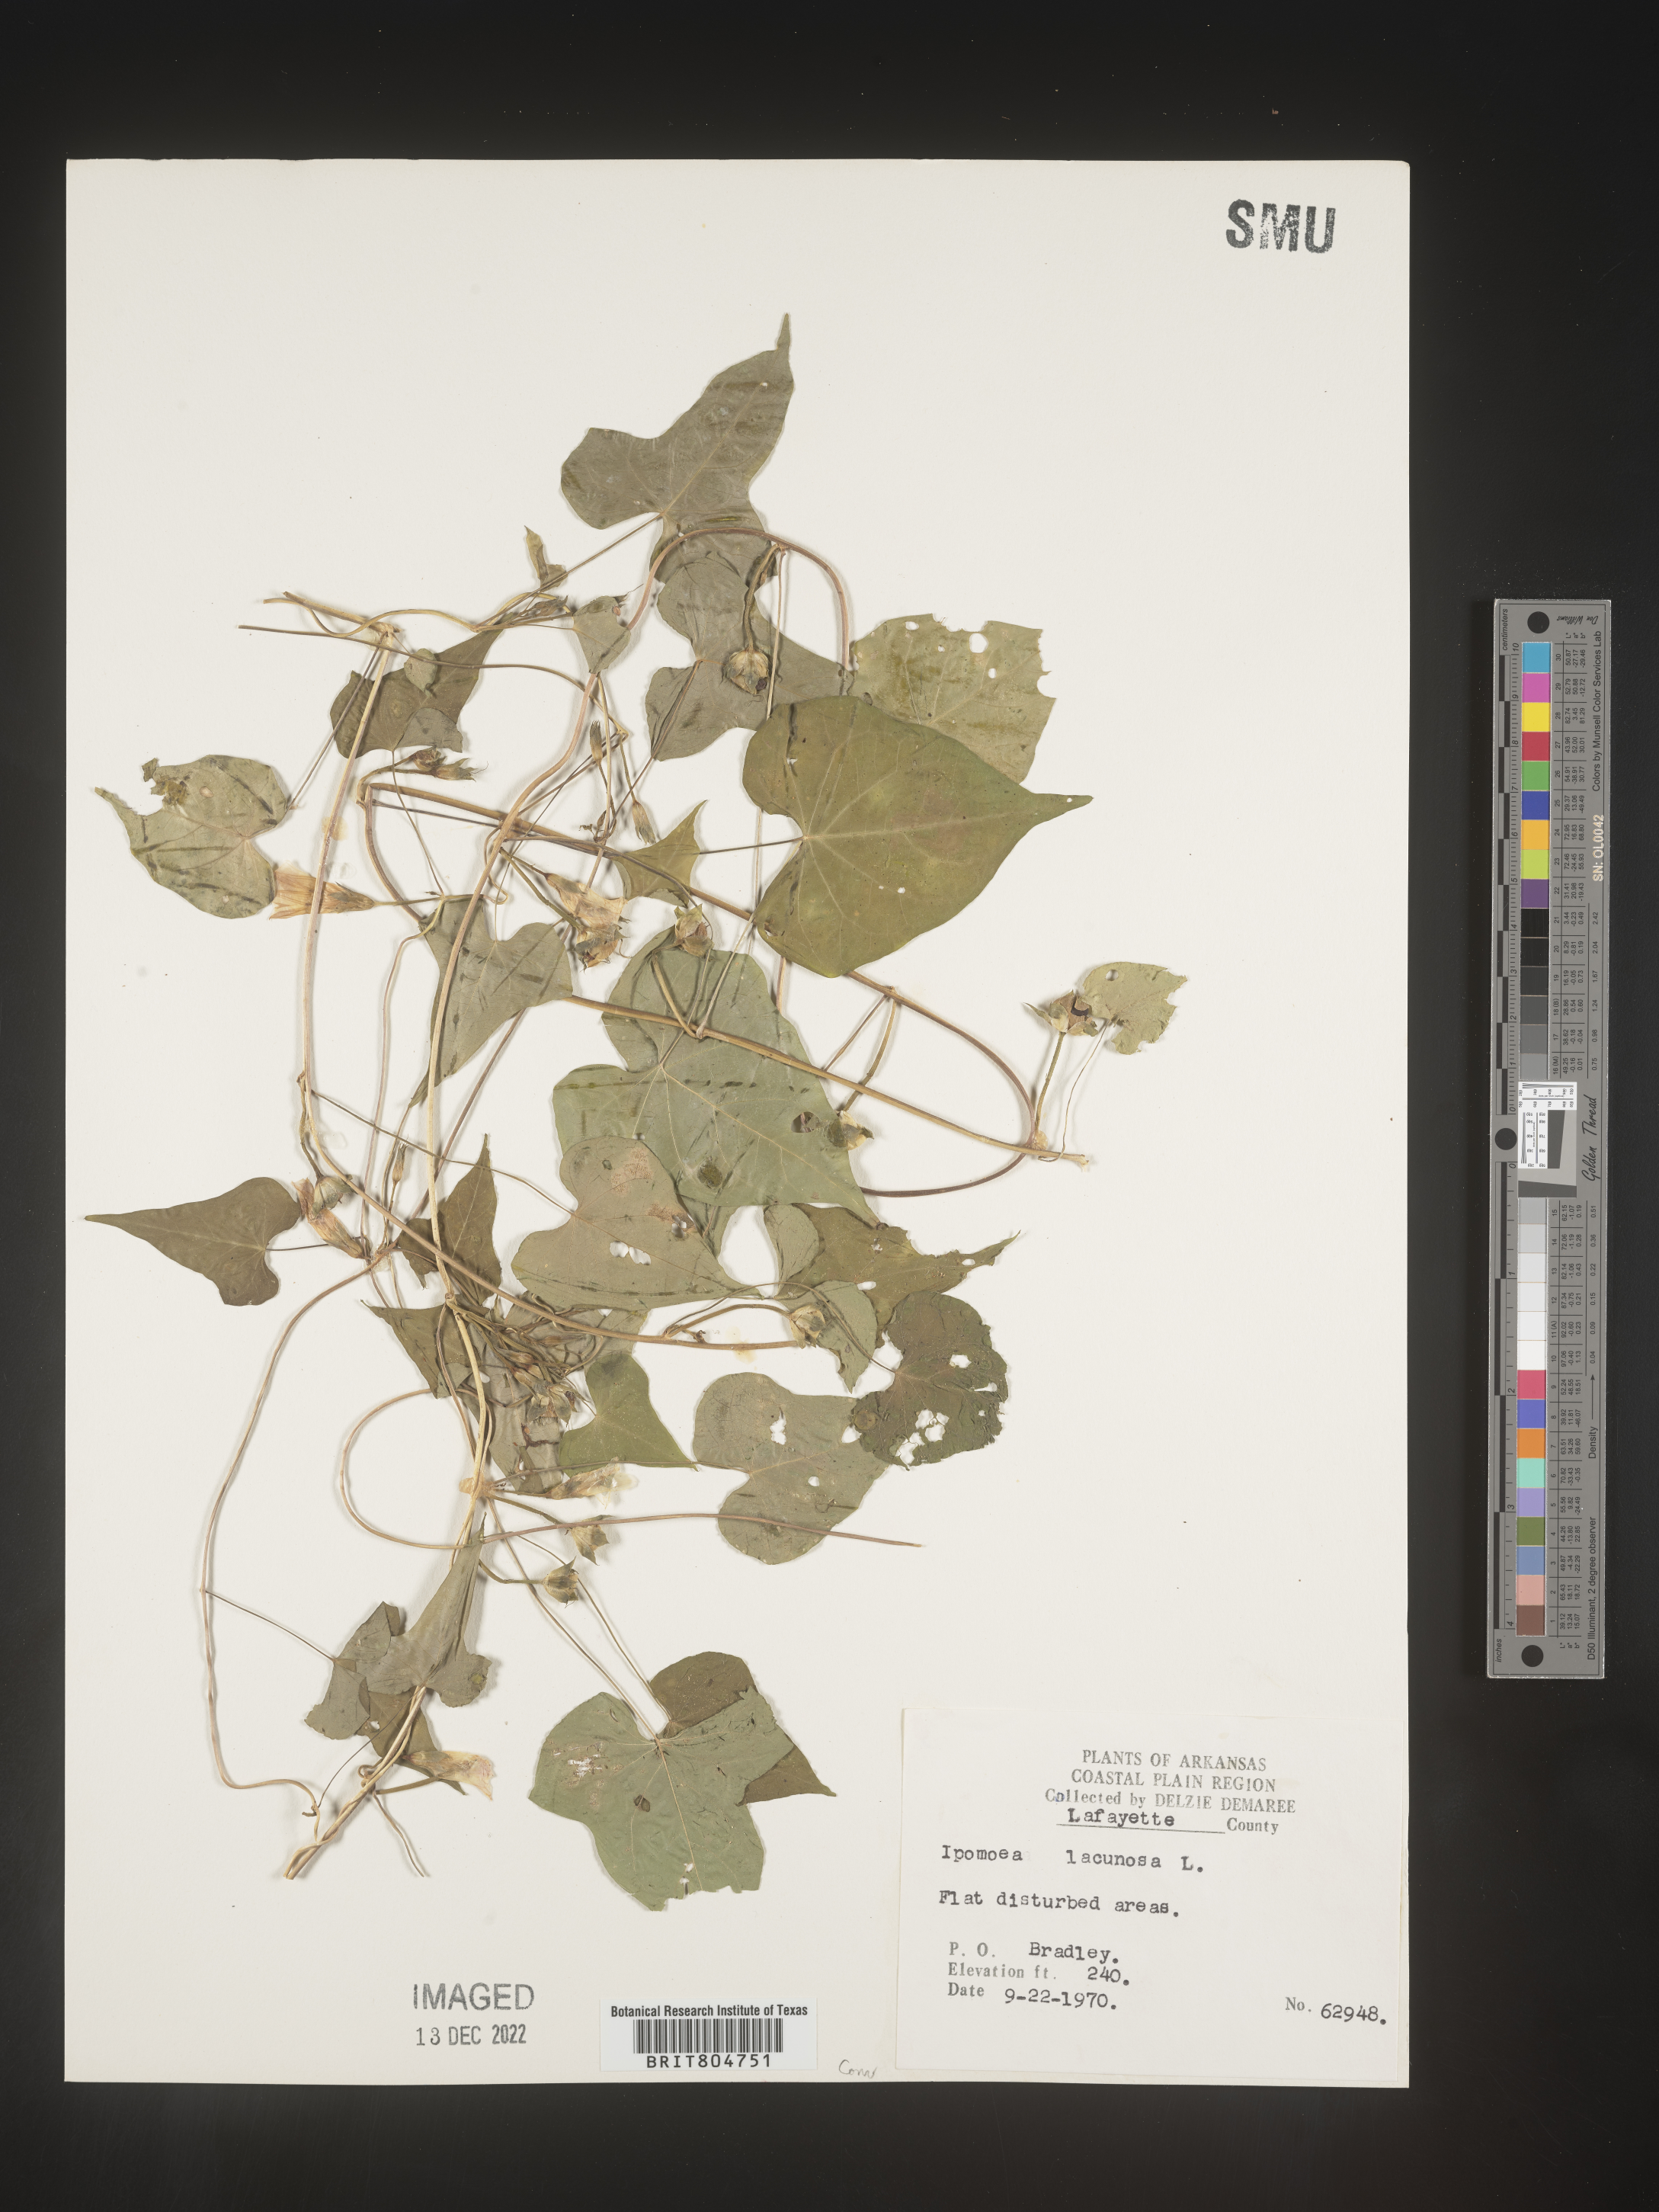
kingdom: Plantae
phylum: Tracheophyta
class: Magnoliopsida
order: Solanales
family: Convolvulaceae
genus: Ipomoea
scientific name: Ipomoea lacunosa
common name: White morning-glory
